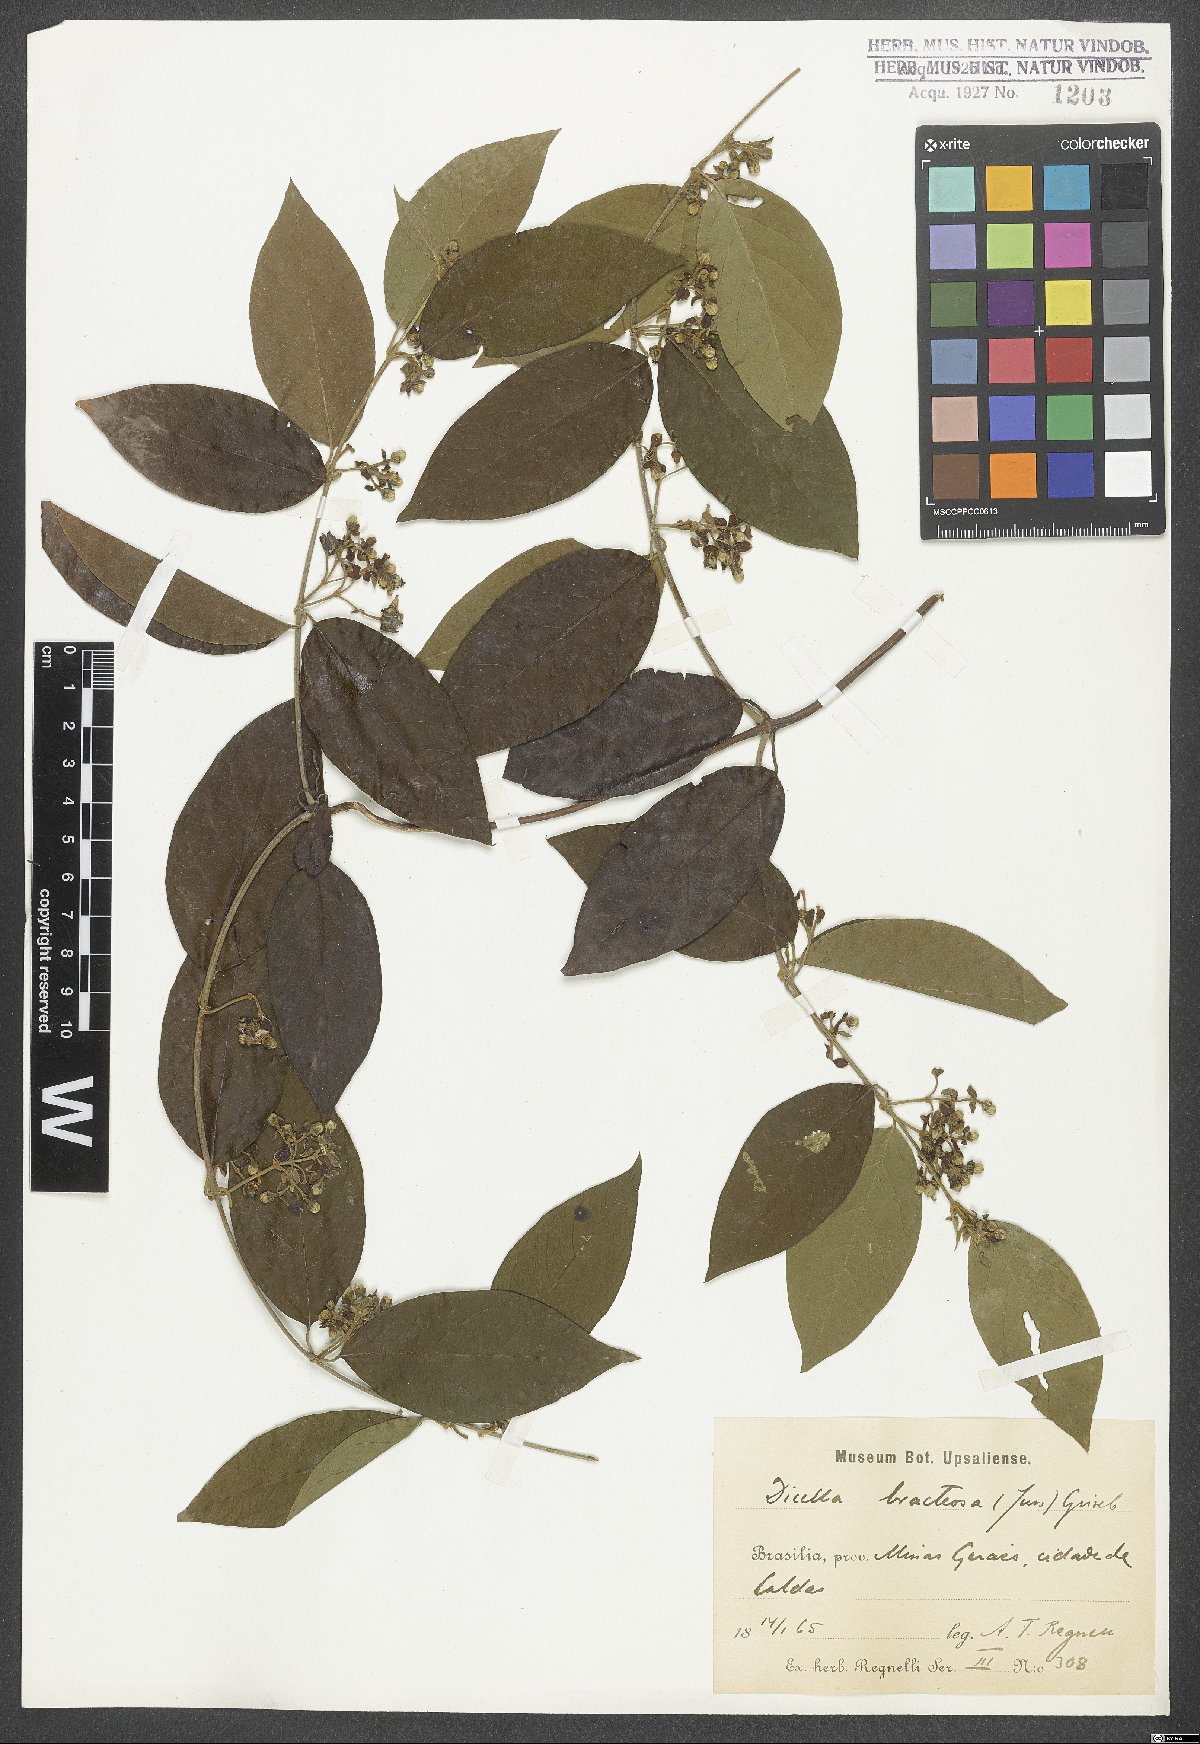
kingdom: Plantae
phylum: Tracheophyta
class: Magnoliopsida
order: Malpighiales
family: Malpighiaceae
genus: Dicella
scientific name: Dicella bracteosa
